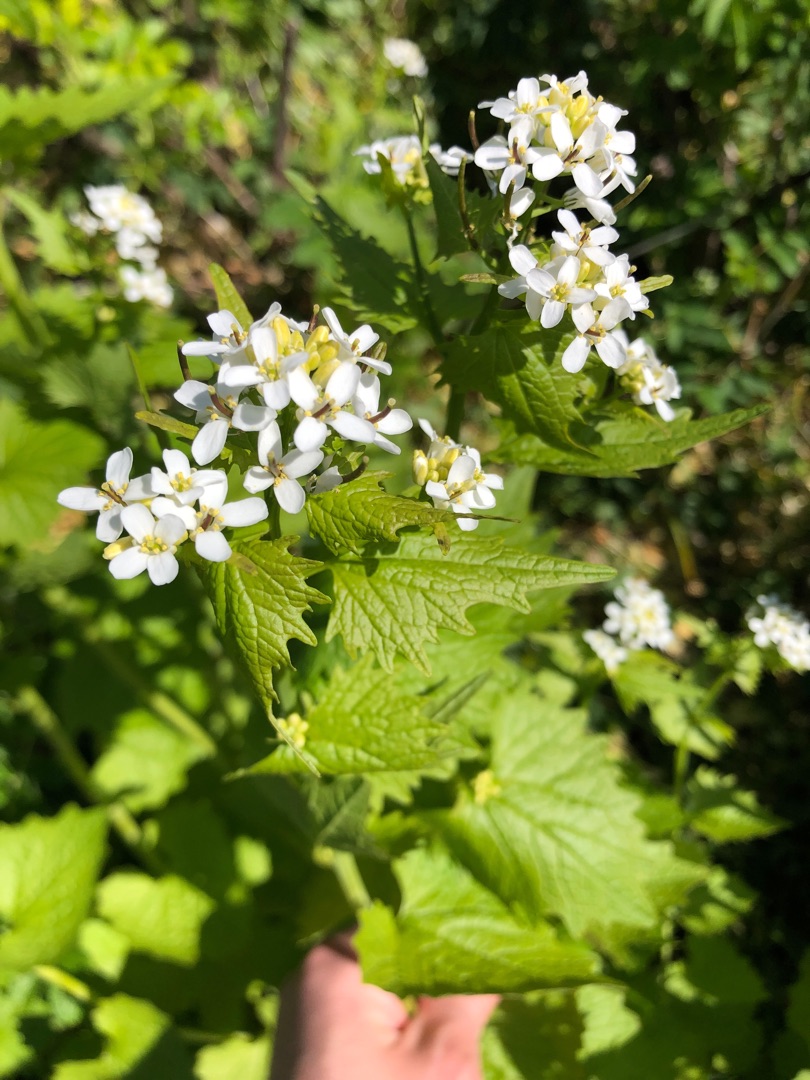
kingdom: Plantae
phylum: Tracheophyta
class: Magnoliopsida
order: Brassicales
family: Brassicaceae
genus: Alliaria
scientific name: Alliaria petiolata
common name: Løgkarse
